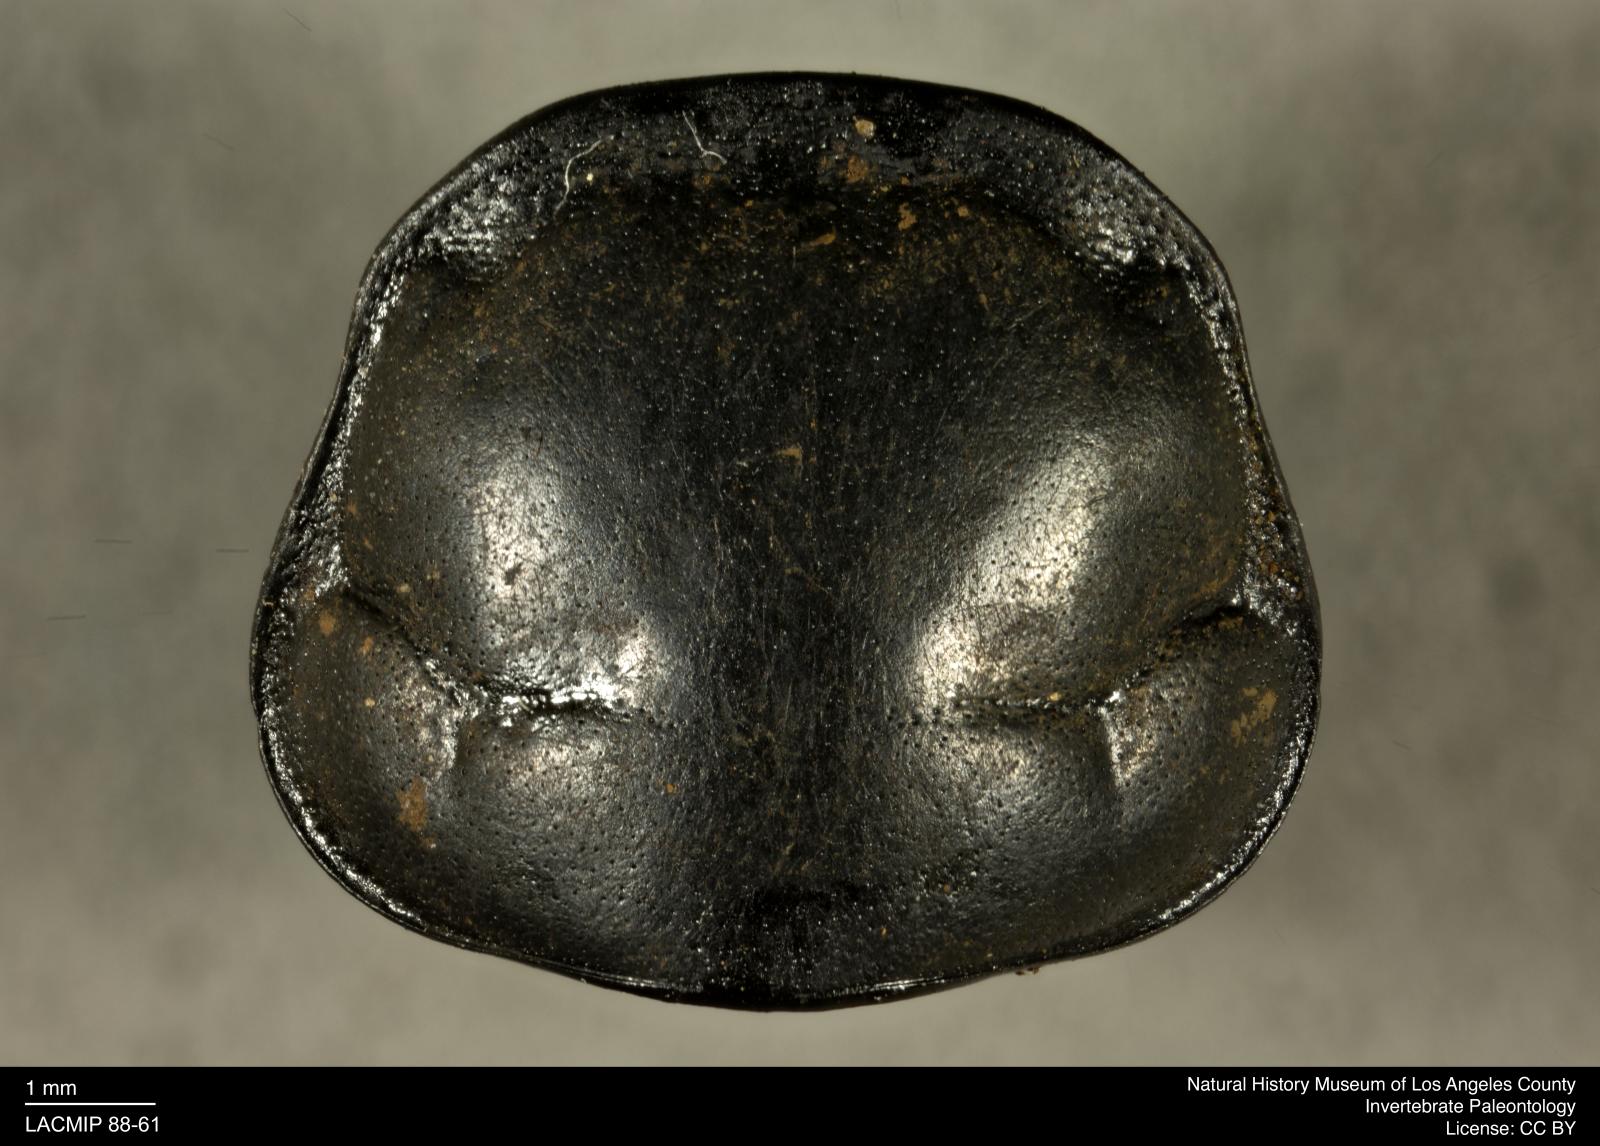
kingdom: Animalia
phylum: Arthropoda
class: Insecta
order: Coleoptera
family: Staphylinidae
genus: Nicrophorus
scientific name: Nicrophorus marginatus
